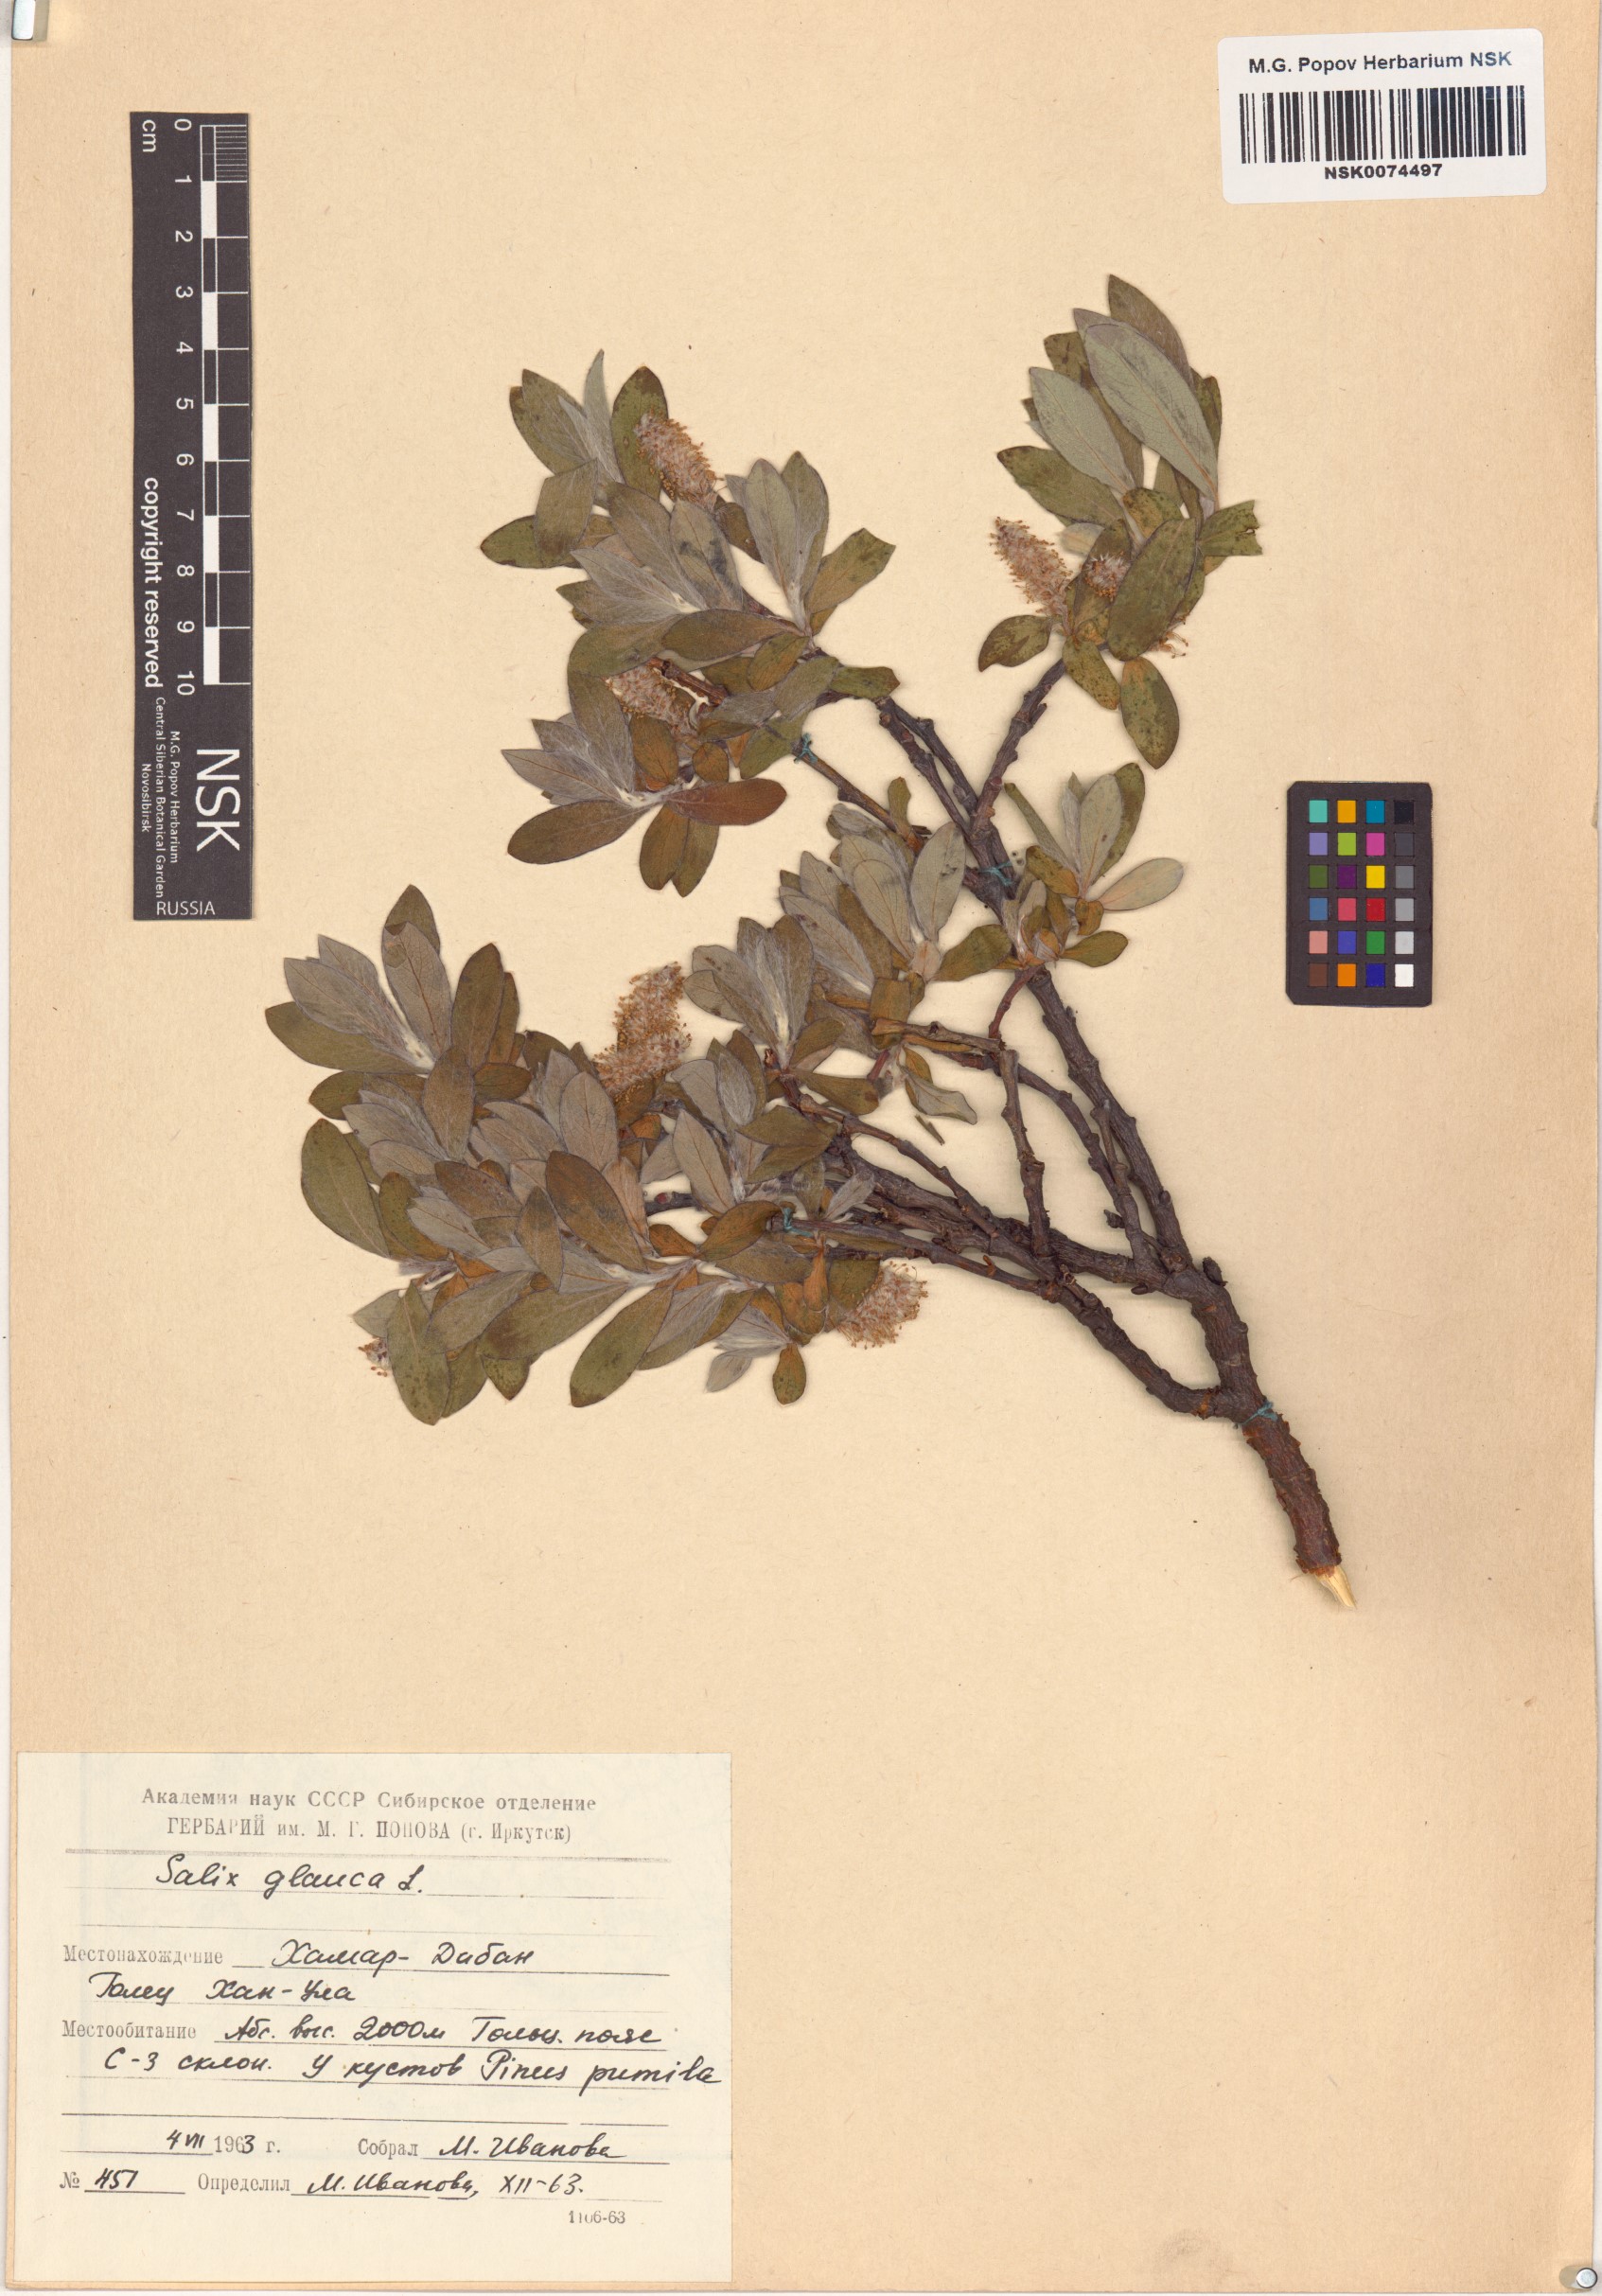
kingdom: Plantae
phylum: Tracheophyta
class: Magnoliopsida
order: Malpighiales
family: Salicaceae
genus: Salix
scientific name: Salix glauca
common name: Glaucous willow
